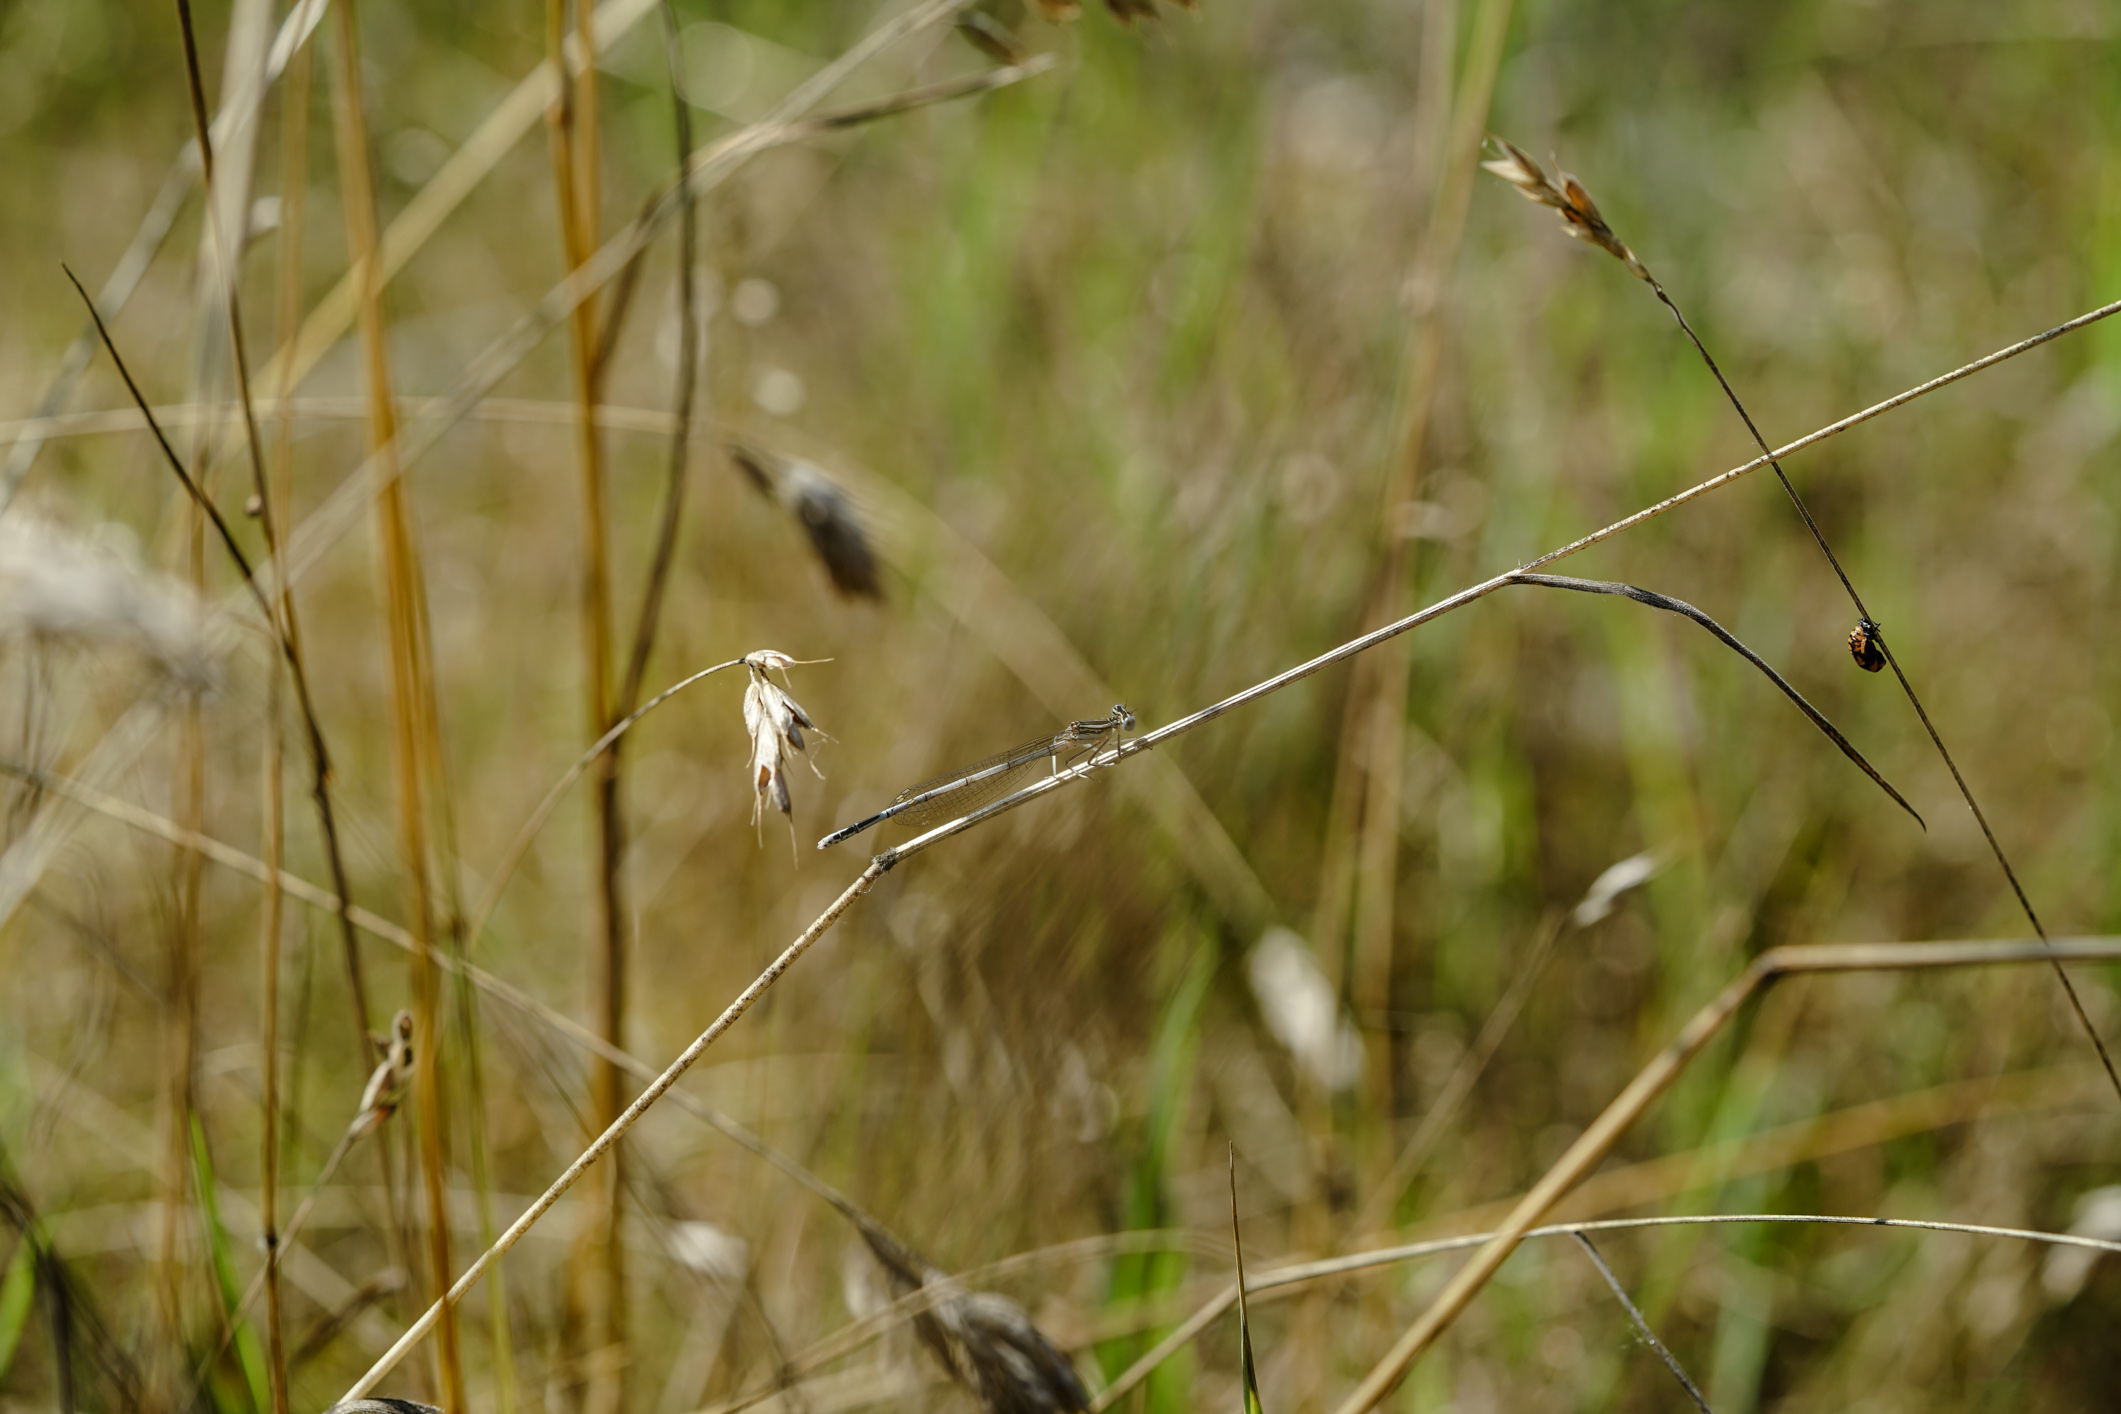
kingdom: Animalia
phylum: Arthropoda
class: Insecta
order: Odonata
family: Platycnemididae
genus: Platycnemis
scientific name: Platycnemis pennipes
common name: White-legged damselfly
